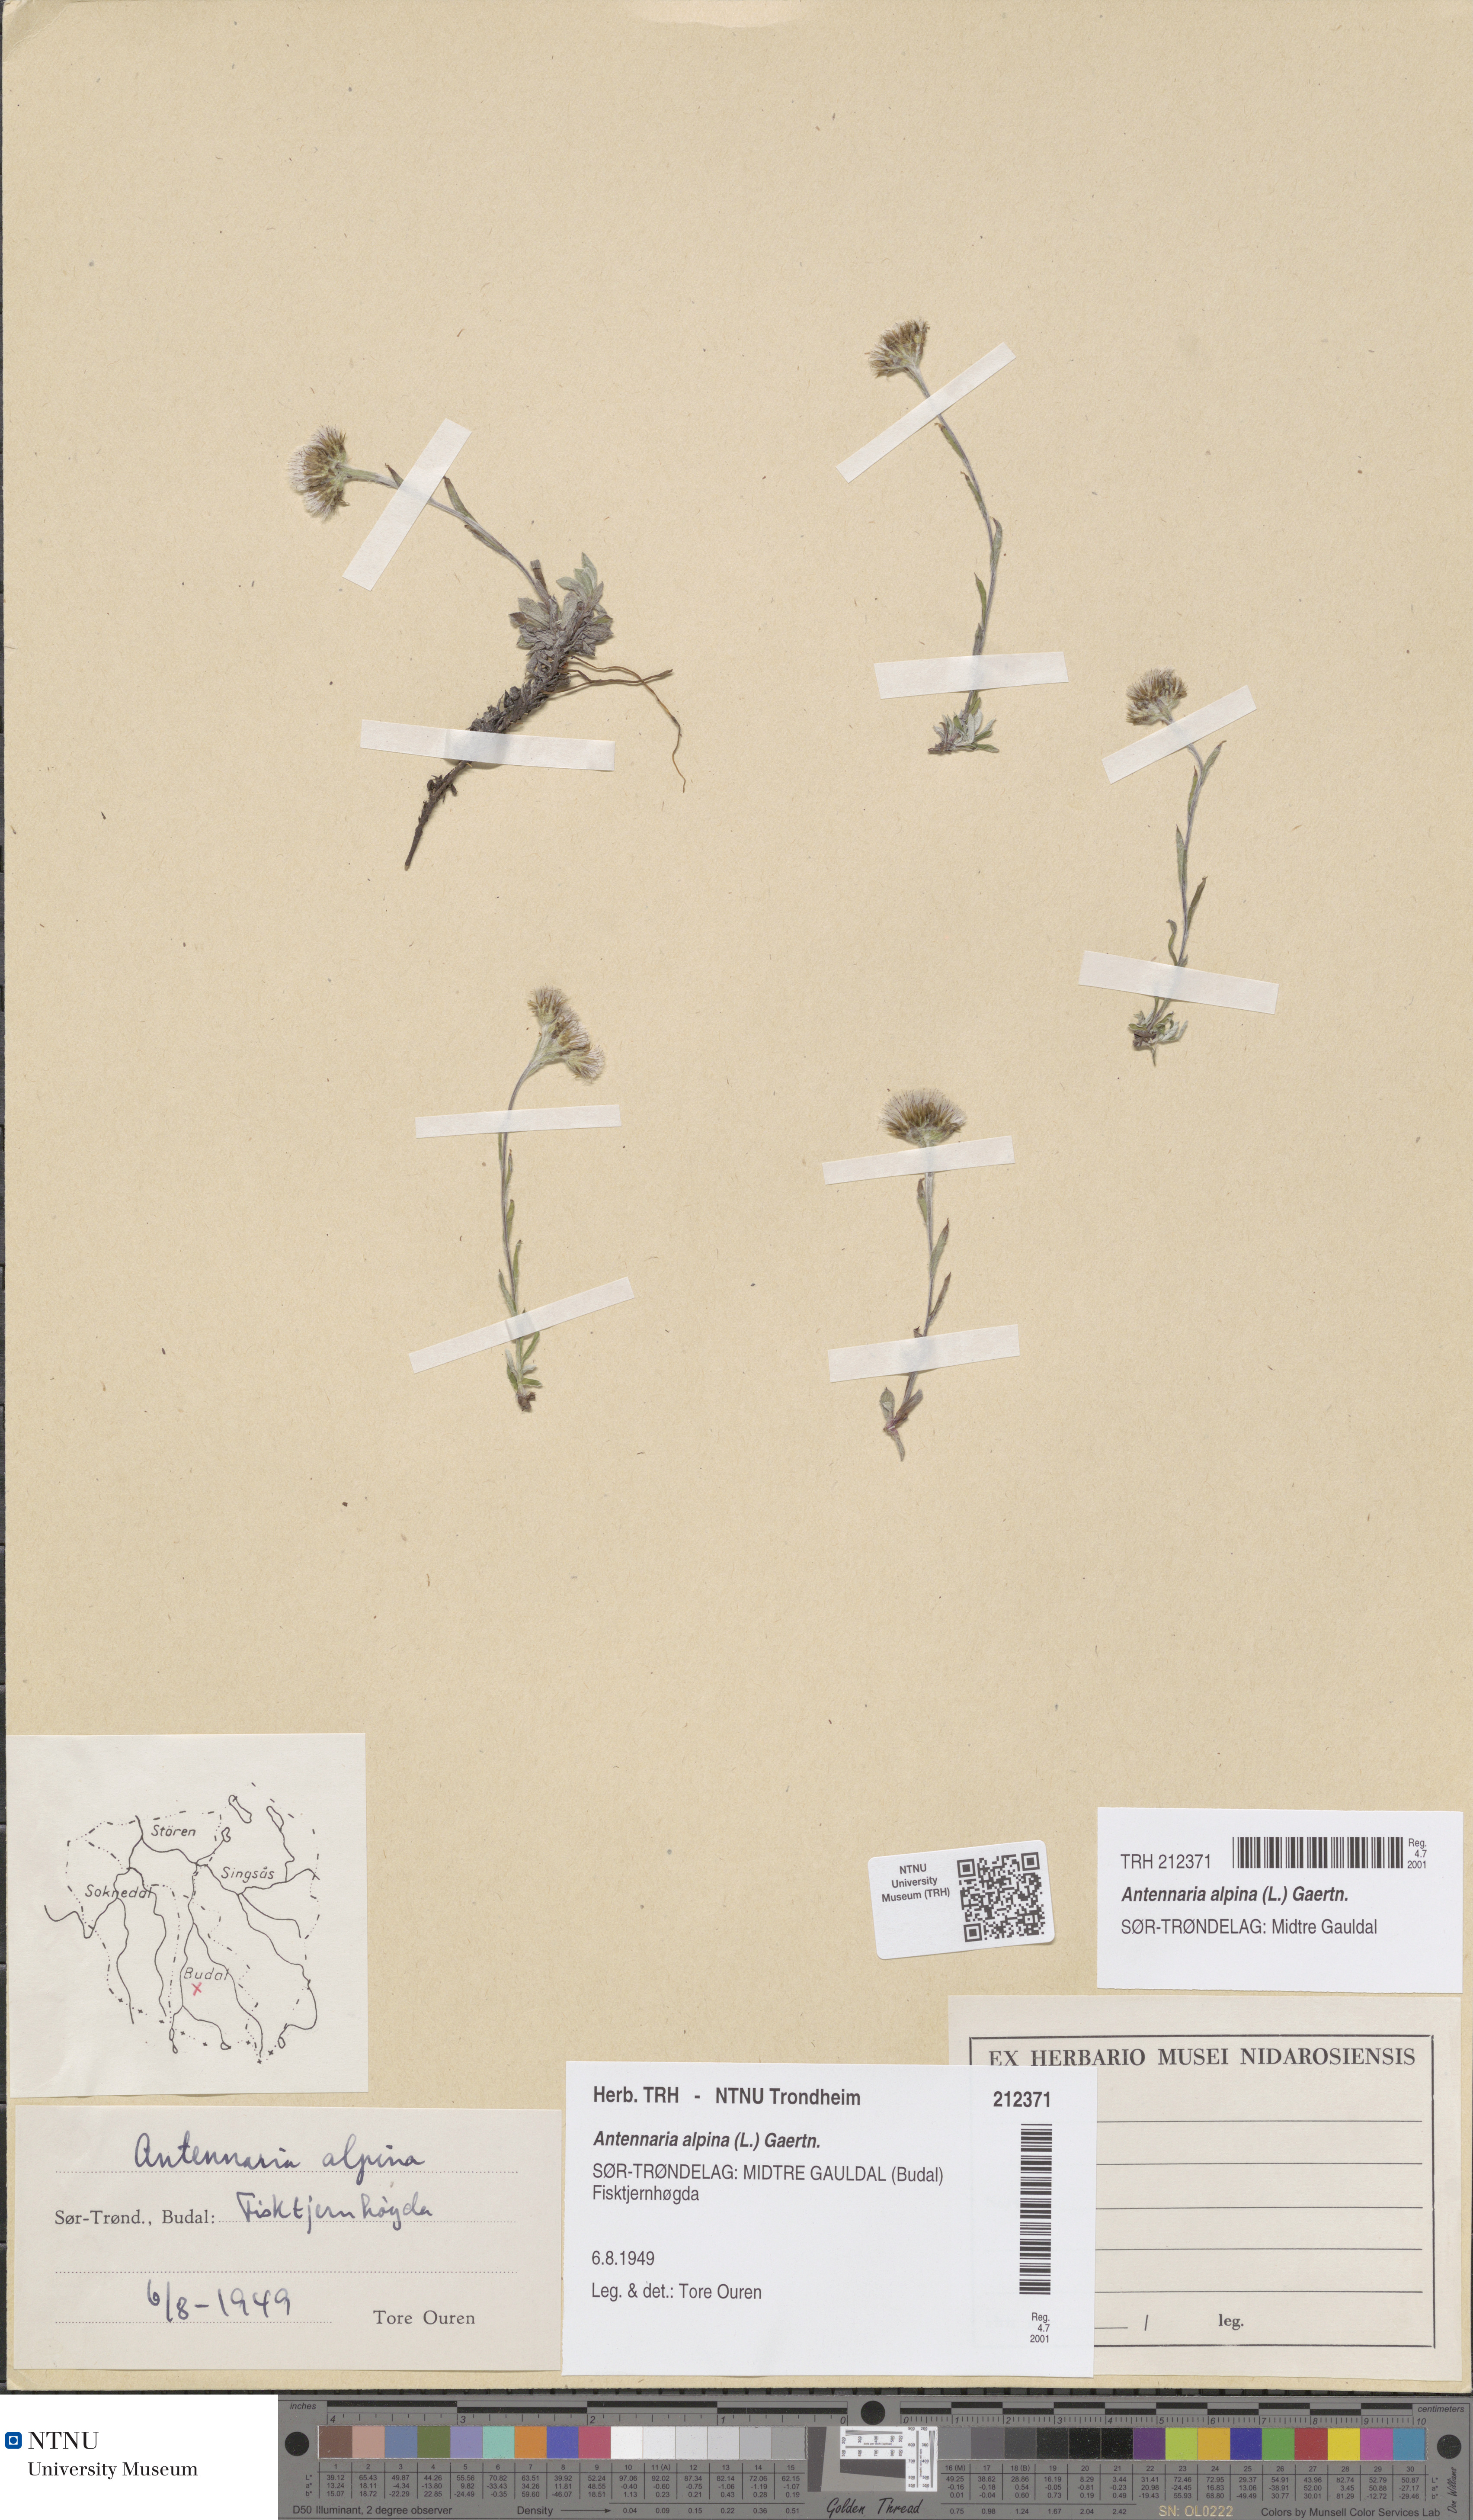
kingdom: Plantae
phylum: Tracheophyta
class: Magnoliopsida
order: Asterales
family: Asteraceae
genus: Antennaria
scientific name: Antennaria alpina
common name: Alpine pussytoes
